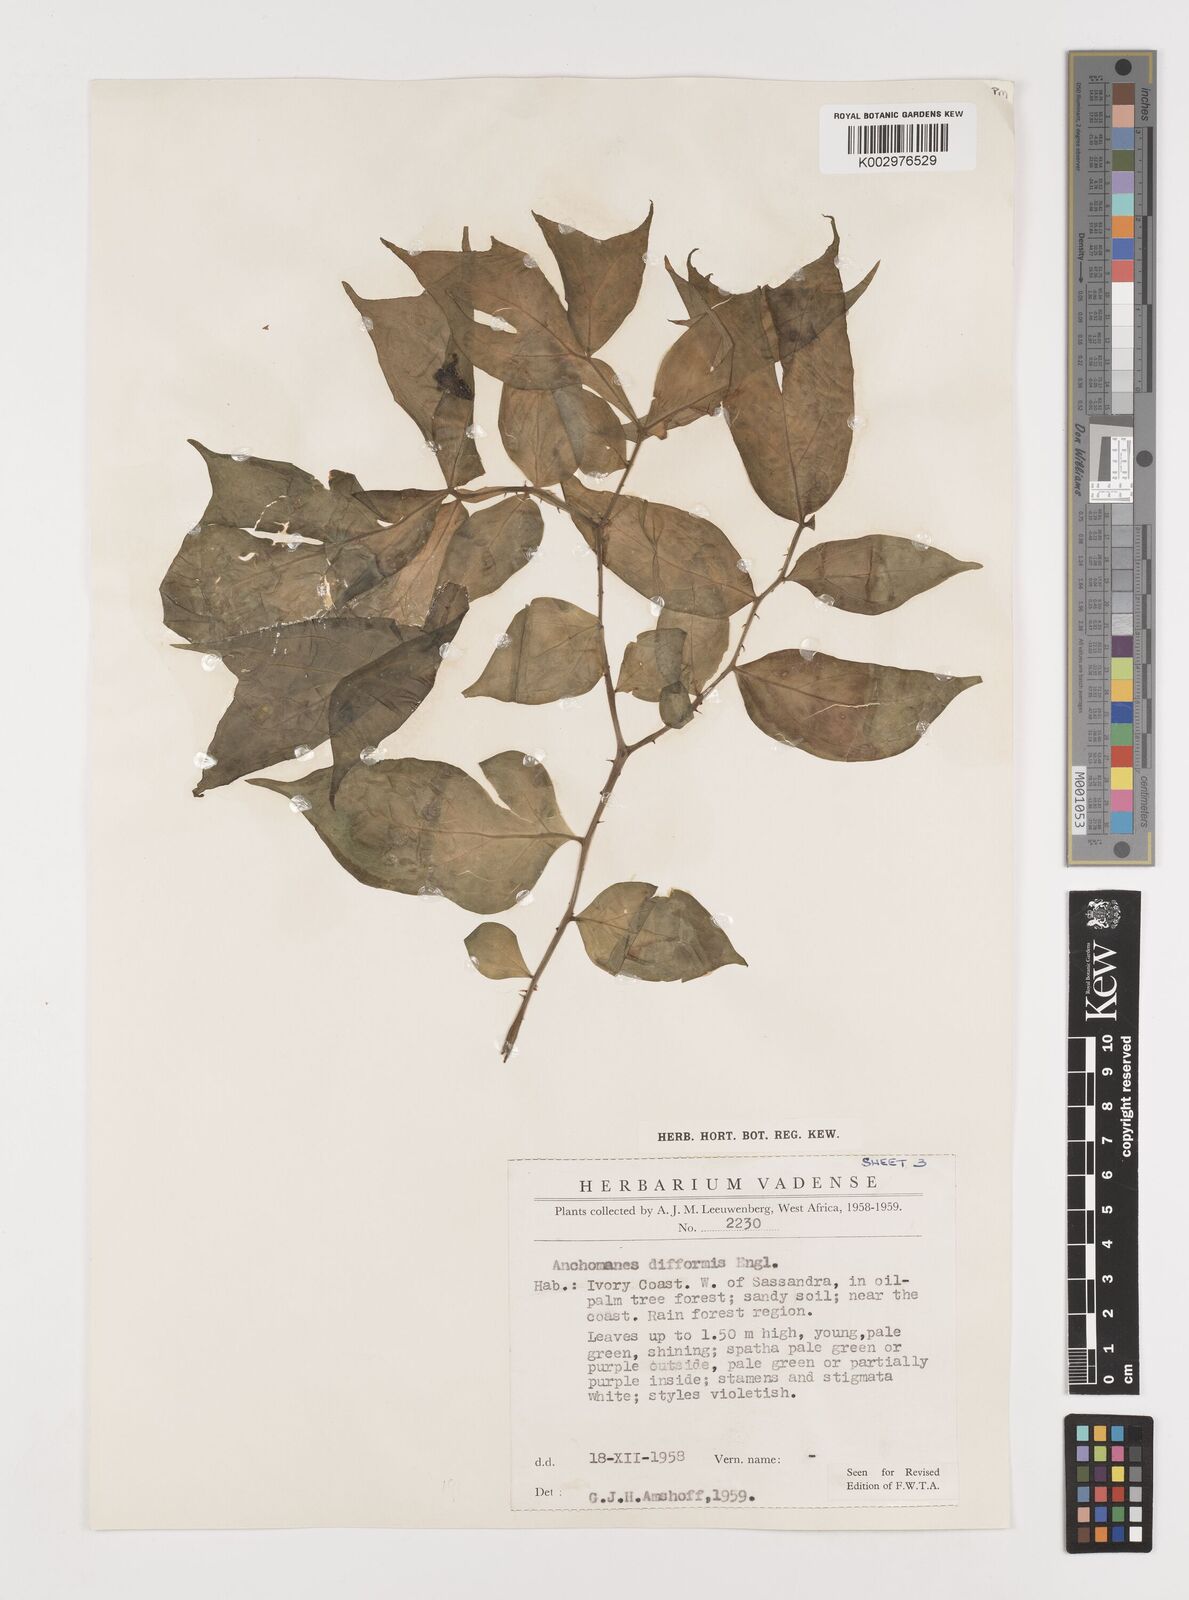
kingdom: Plantae
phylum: Tracheophyta
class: Liliopsida
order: Alismatales
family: Araceae
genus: Anchomanes
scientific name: Anchomanes difformis
